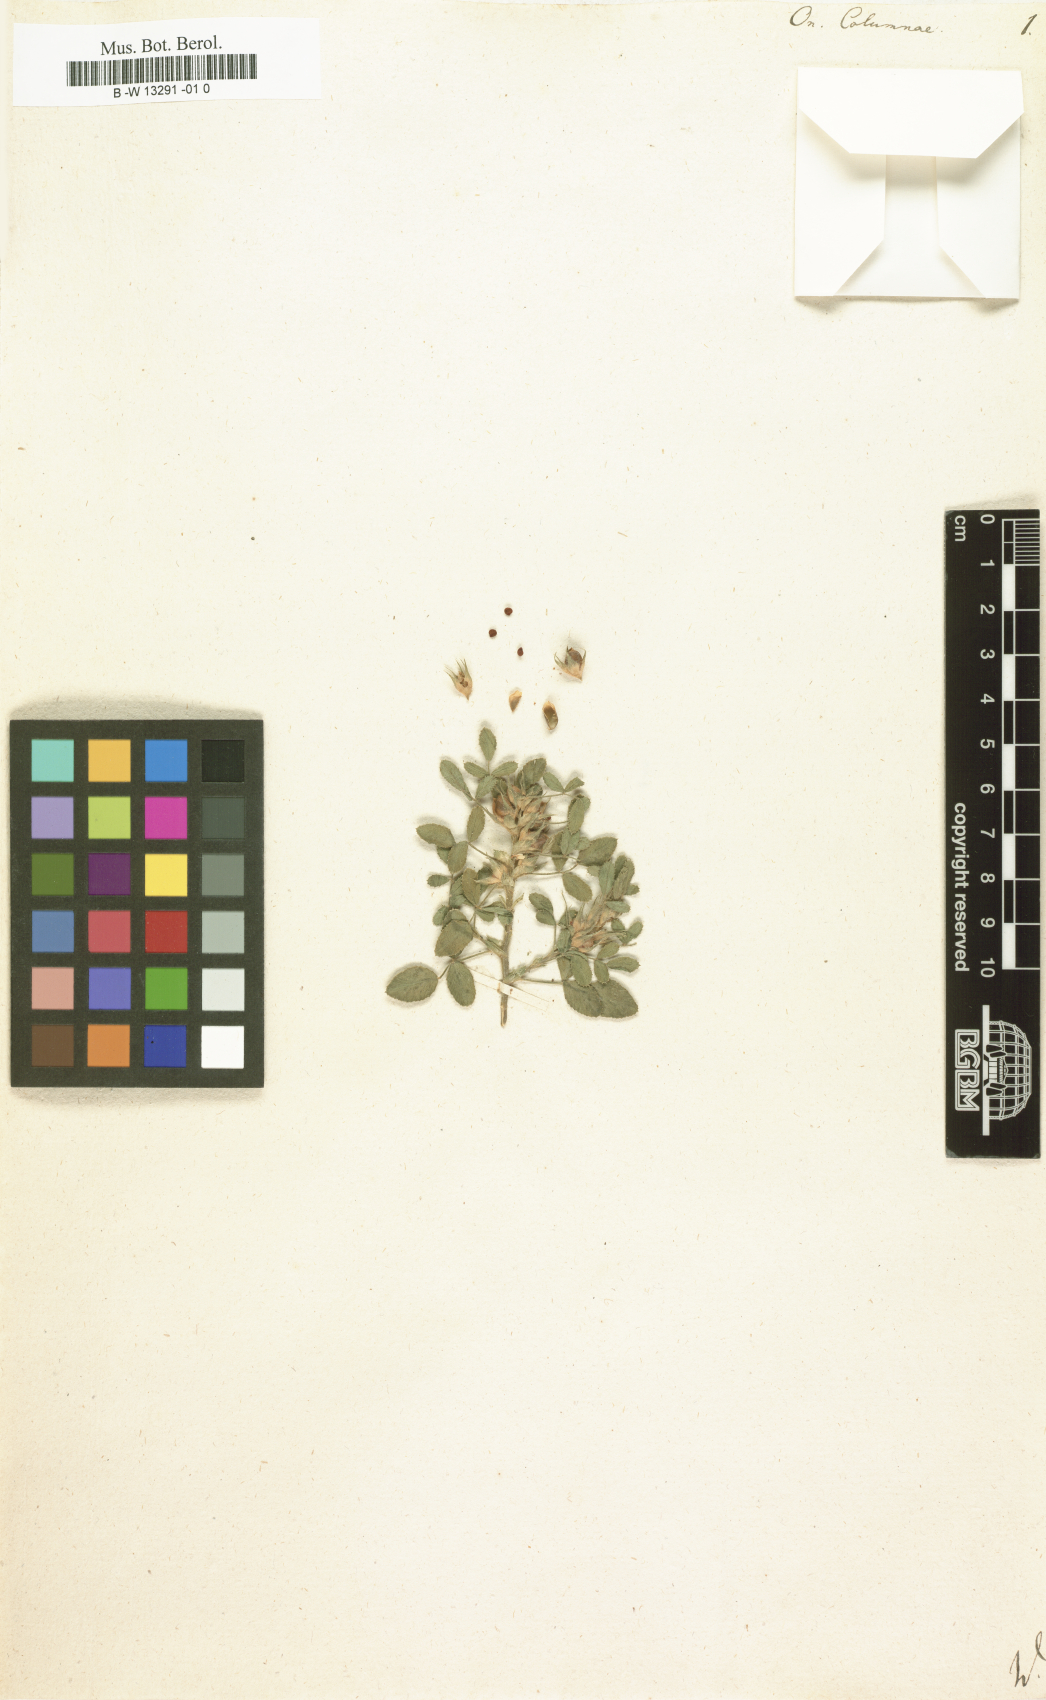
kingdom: Plantae
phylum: Tracheophyta
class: Magnoliopsida
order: Fabales
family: Fabaceae
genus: Ononis
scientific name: Ononis pusilla
